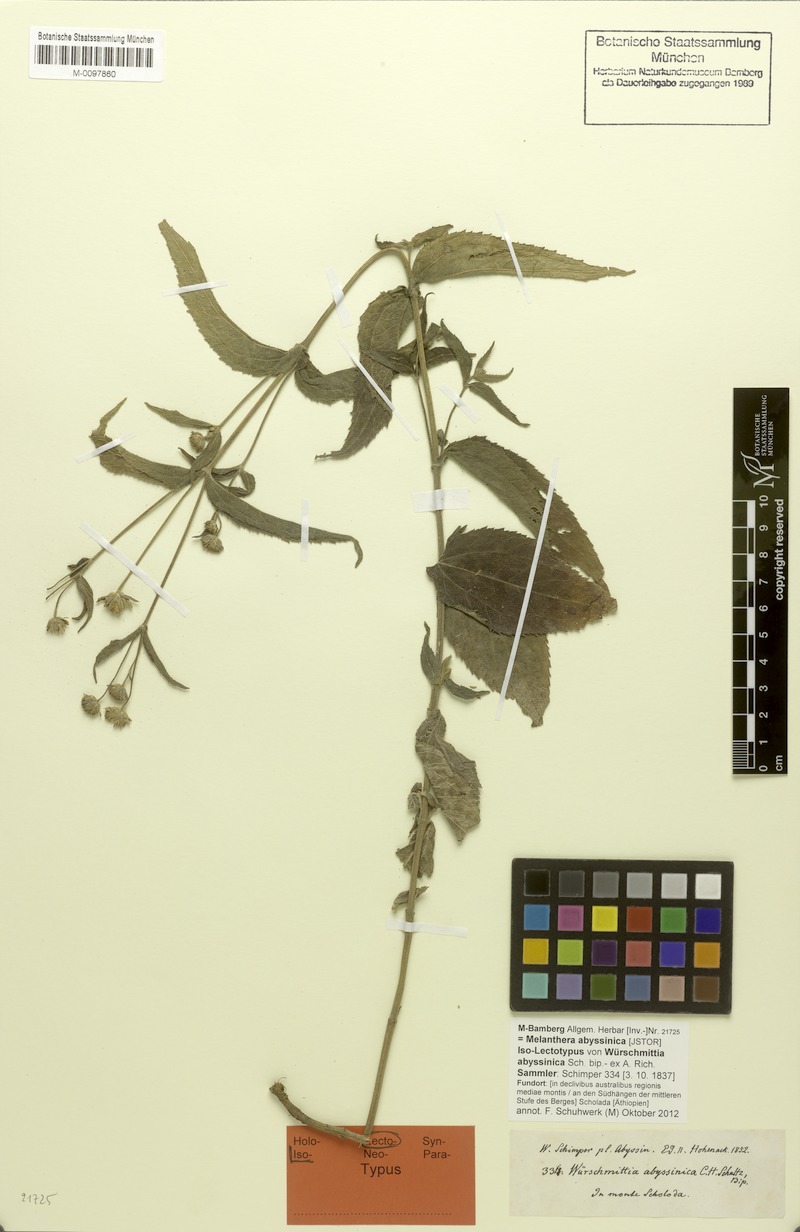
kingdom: Plantae
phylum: Tracheophyta
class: Magnoliopsida
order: Asterales
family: Asteraceae
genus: Lipotriche
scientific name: Lipotriche abyssinica
